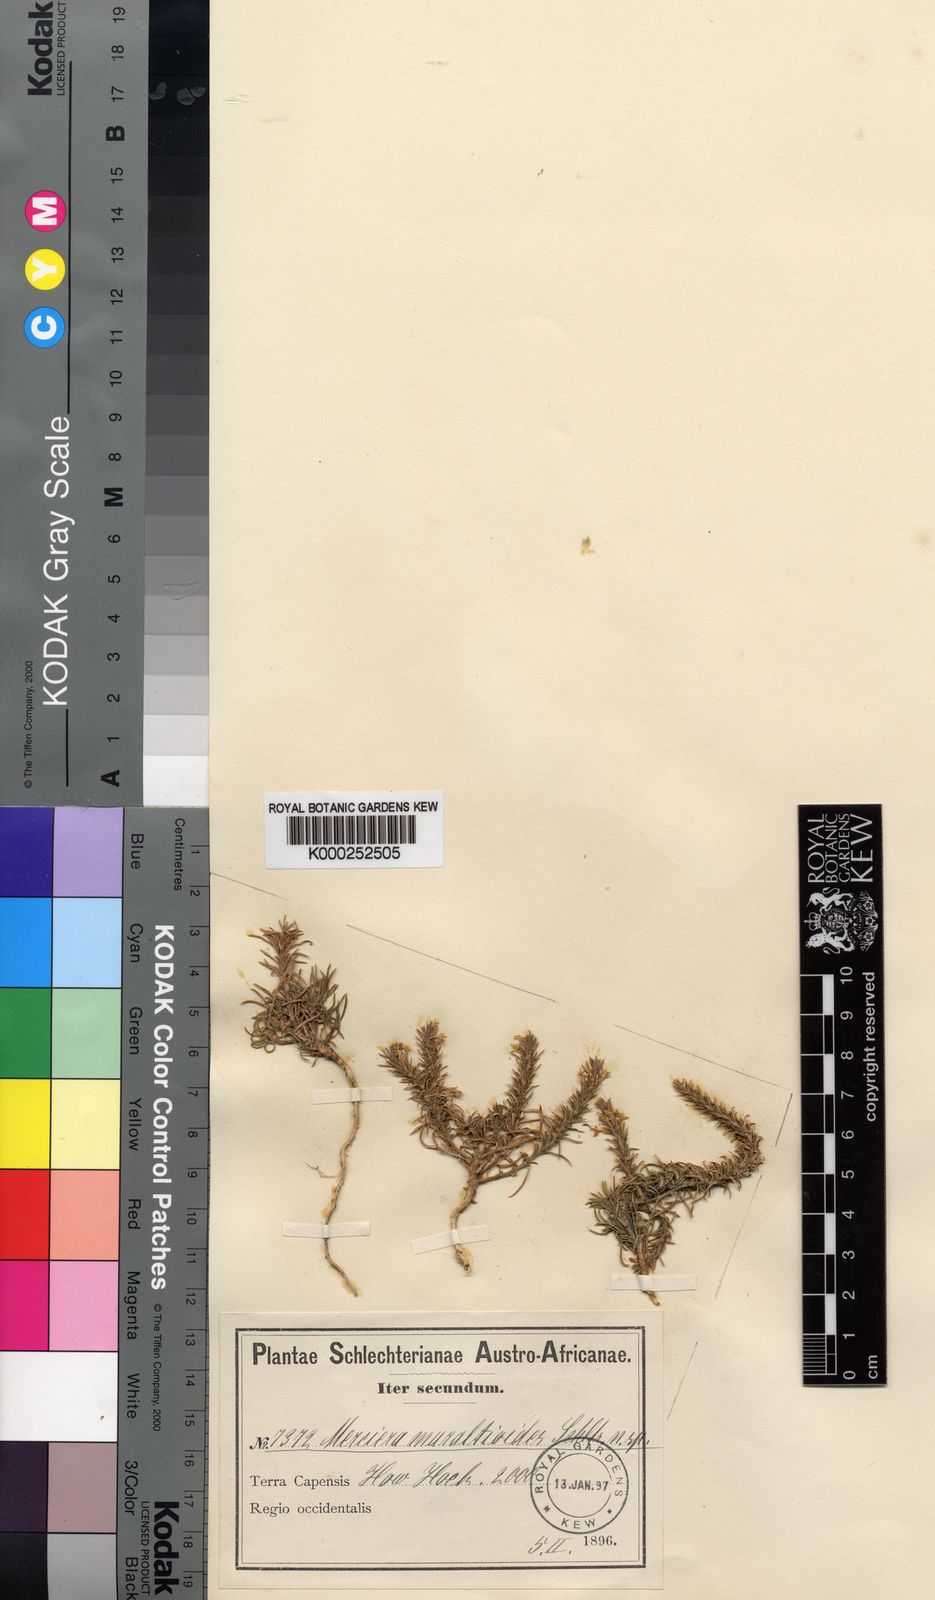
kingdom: Plantae
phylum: Tracheophyta
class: Magnoliopsida
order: Asterales
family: Campanulaceae
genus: Merciera
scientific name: Merciera
